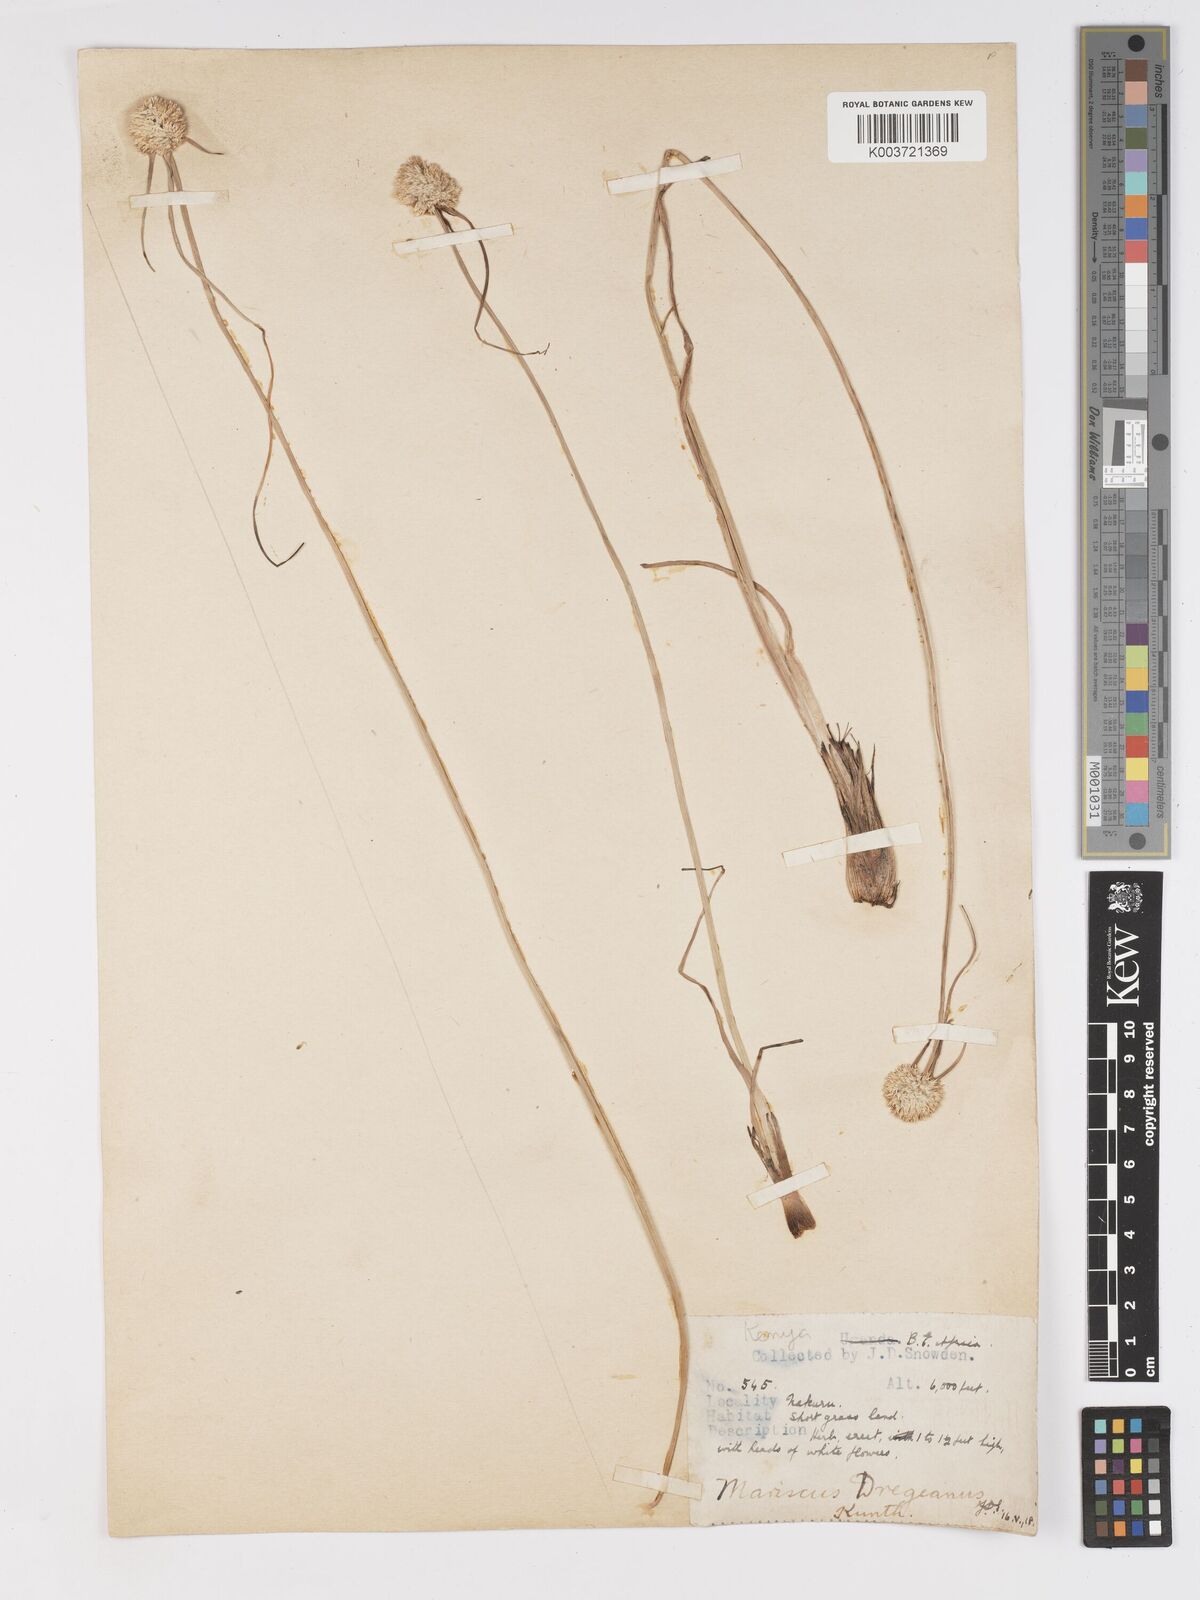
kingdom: Plantae
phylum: Tracheophyta
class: Liliopsida
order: Poales
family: Cyperaceae
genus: Cyperus
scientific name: Cyperus mollipes
